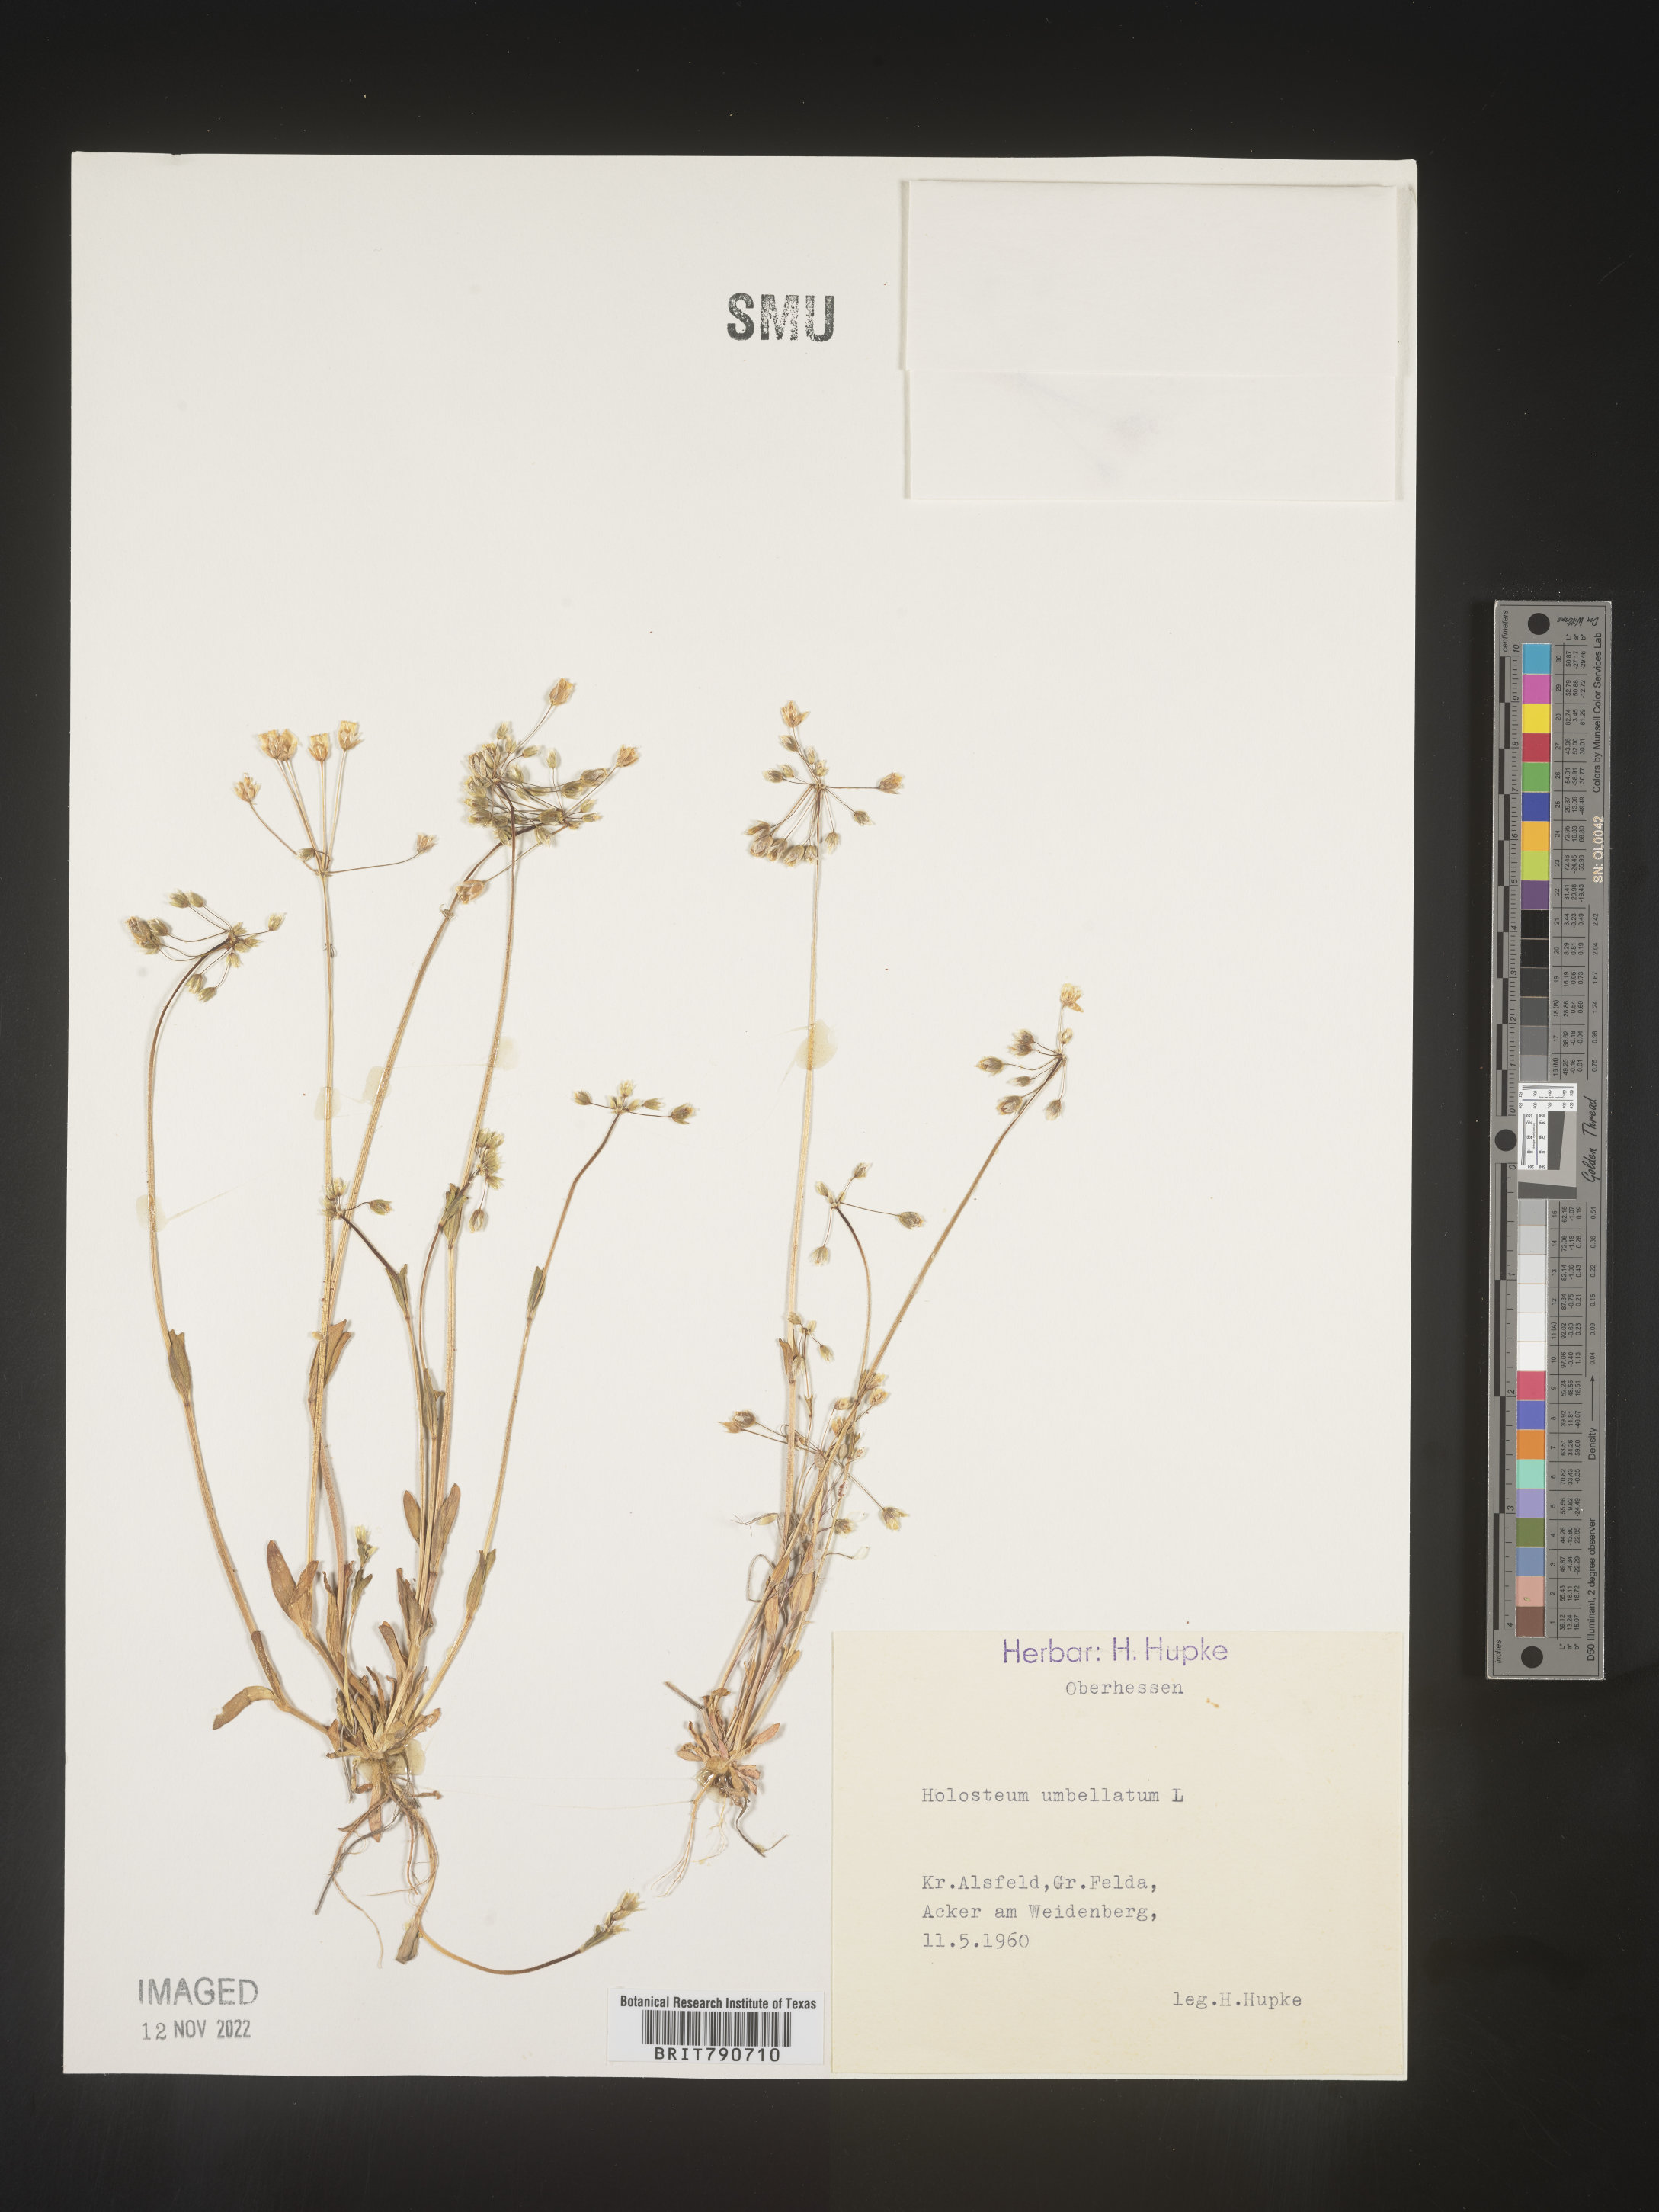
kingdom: Plantae
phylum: Tracheophyta
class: Magnoliopsida
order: Caryophyllales
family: Caryophyllaceae
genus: Holosteum
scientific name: Holosteum
